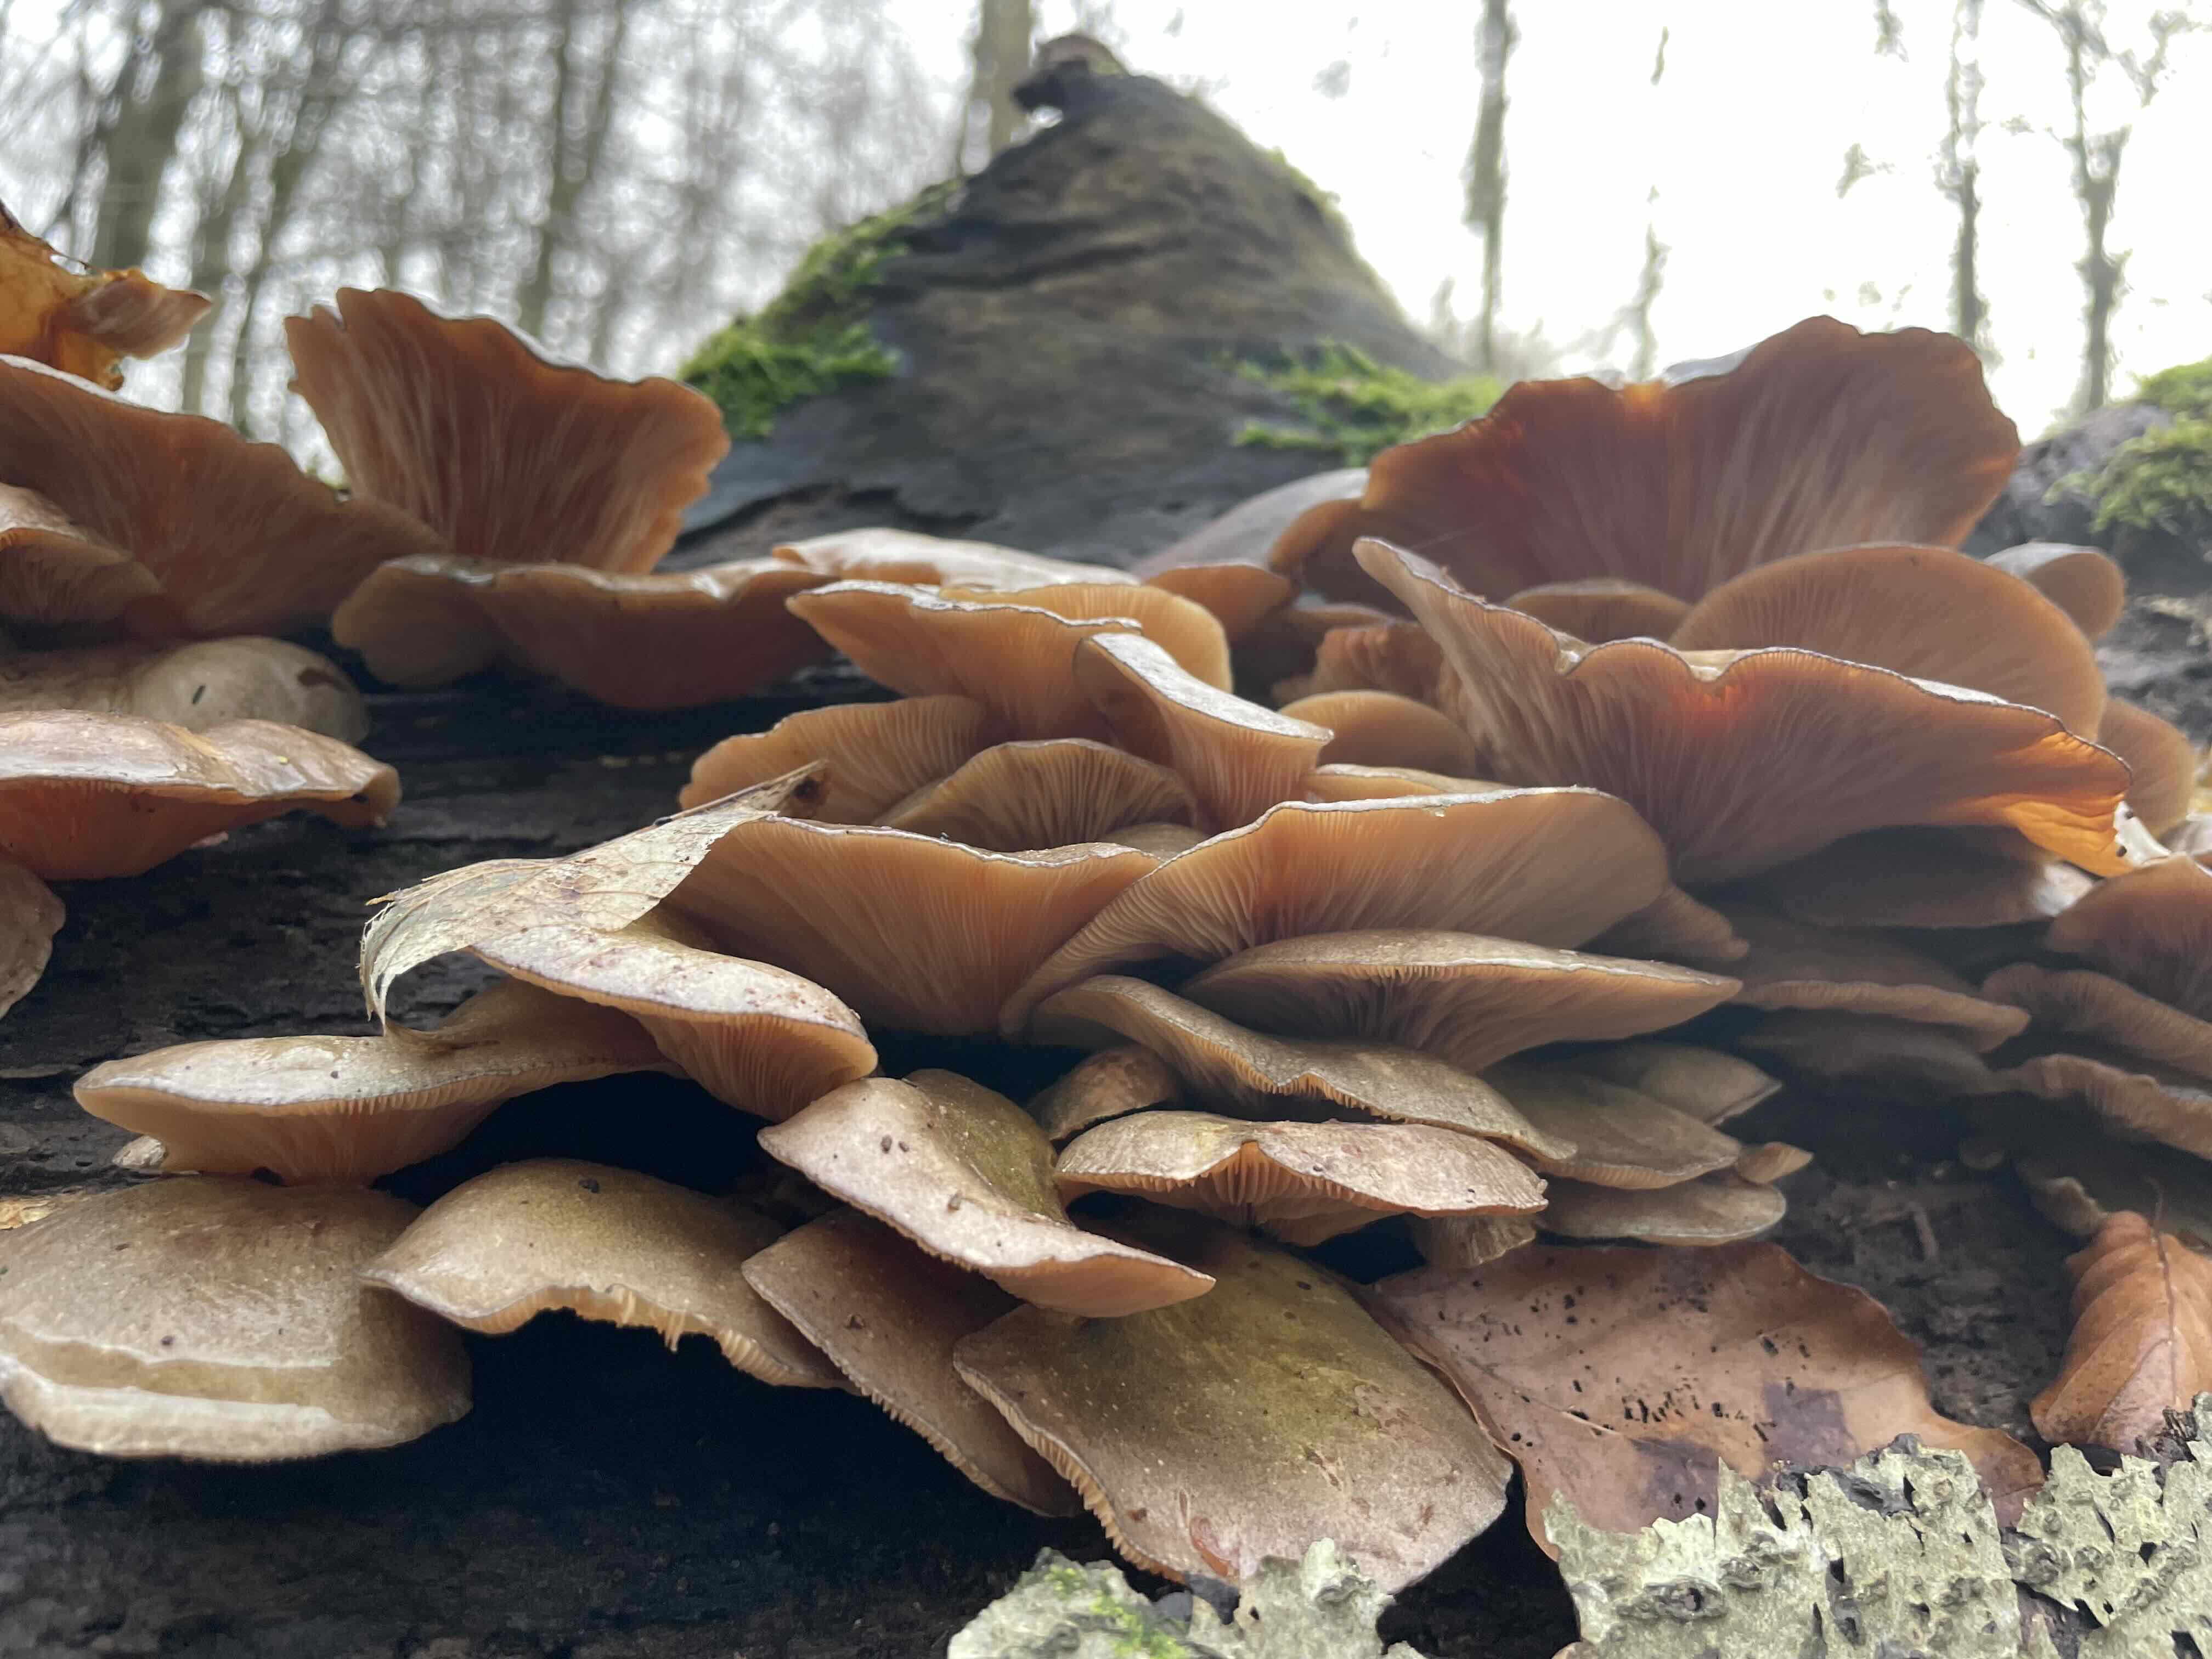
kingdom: Fungi
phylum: Basidiomycota
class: Agaricomycetes
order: Agaricales
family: Sarcomyxaceae
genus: Sarcomyxa
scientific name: Sarcomyxa serotina
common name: gummihat
